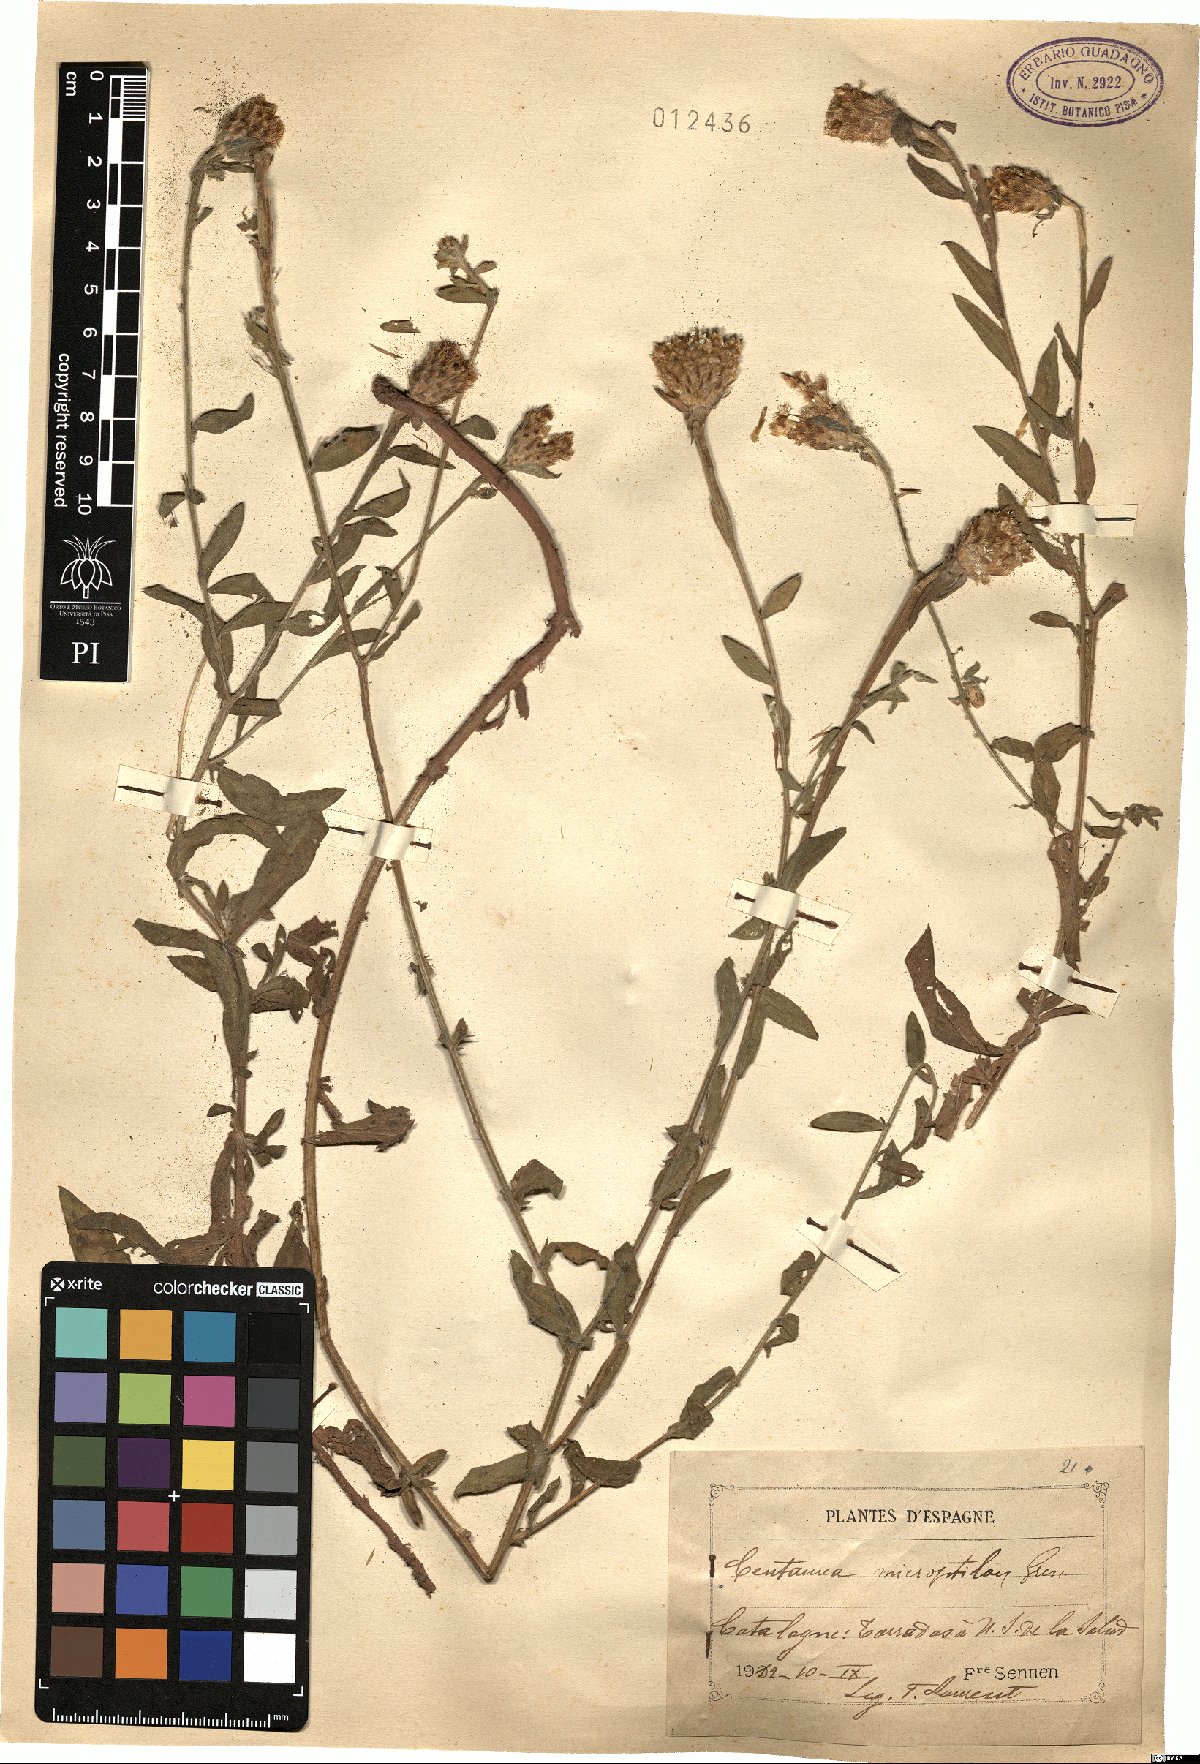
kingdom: Plantae
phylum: Tracheophyta
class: Magnoliopsida
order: Asterales
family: Asteraceae
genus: Centaurea
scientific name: Centaurea nigra
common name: Lesser knapweed
